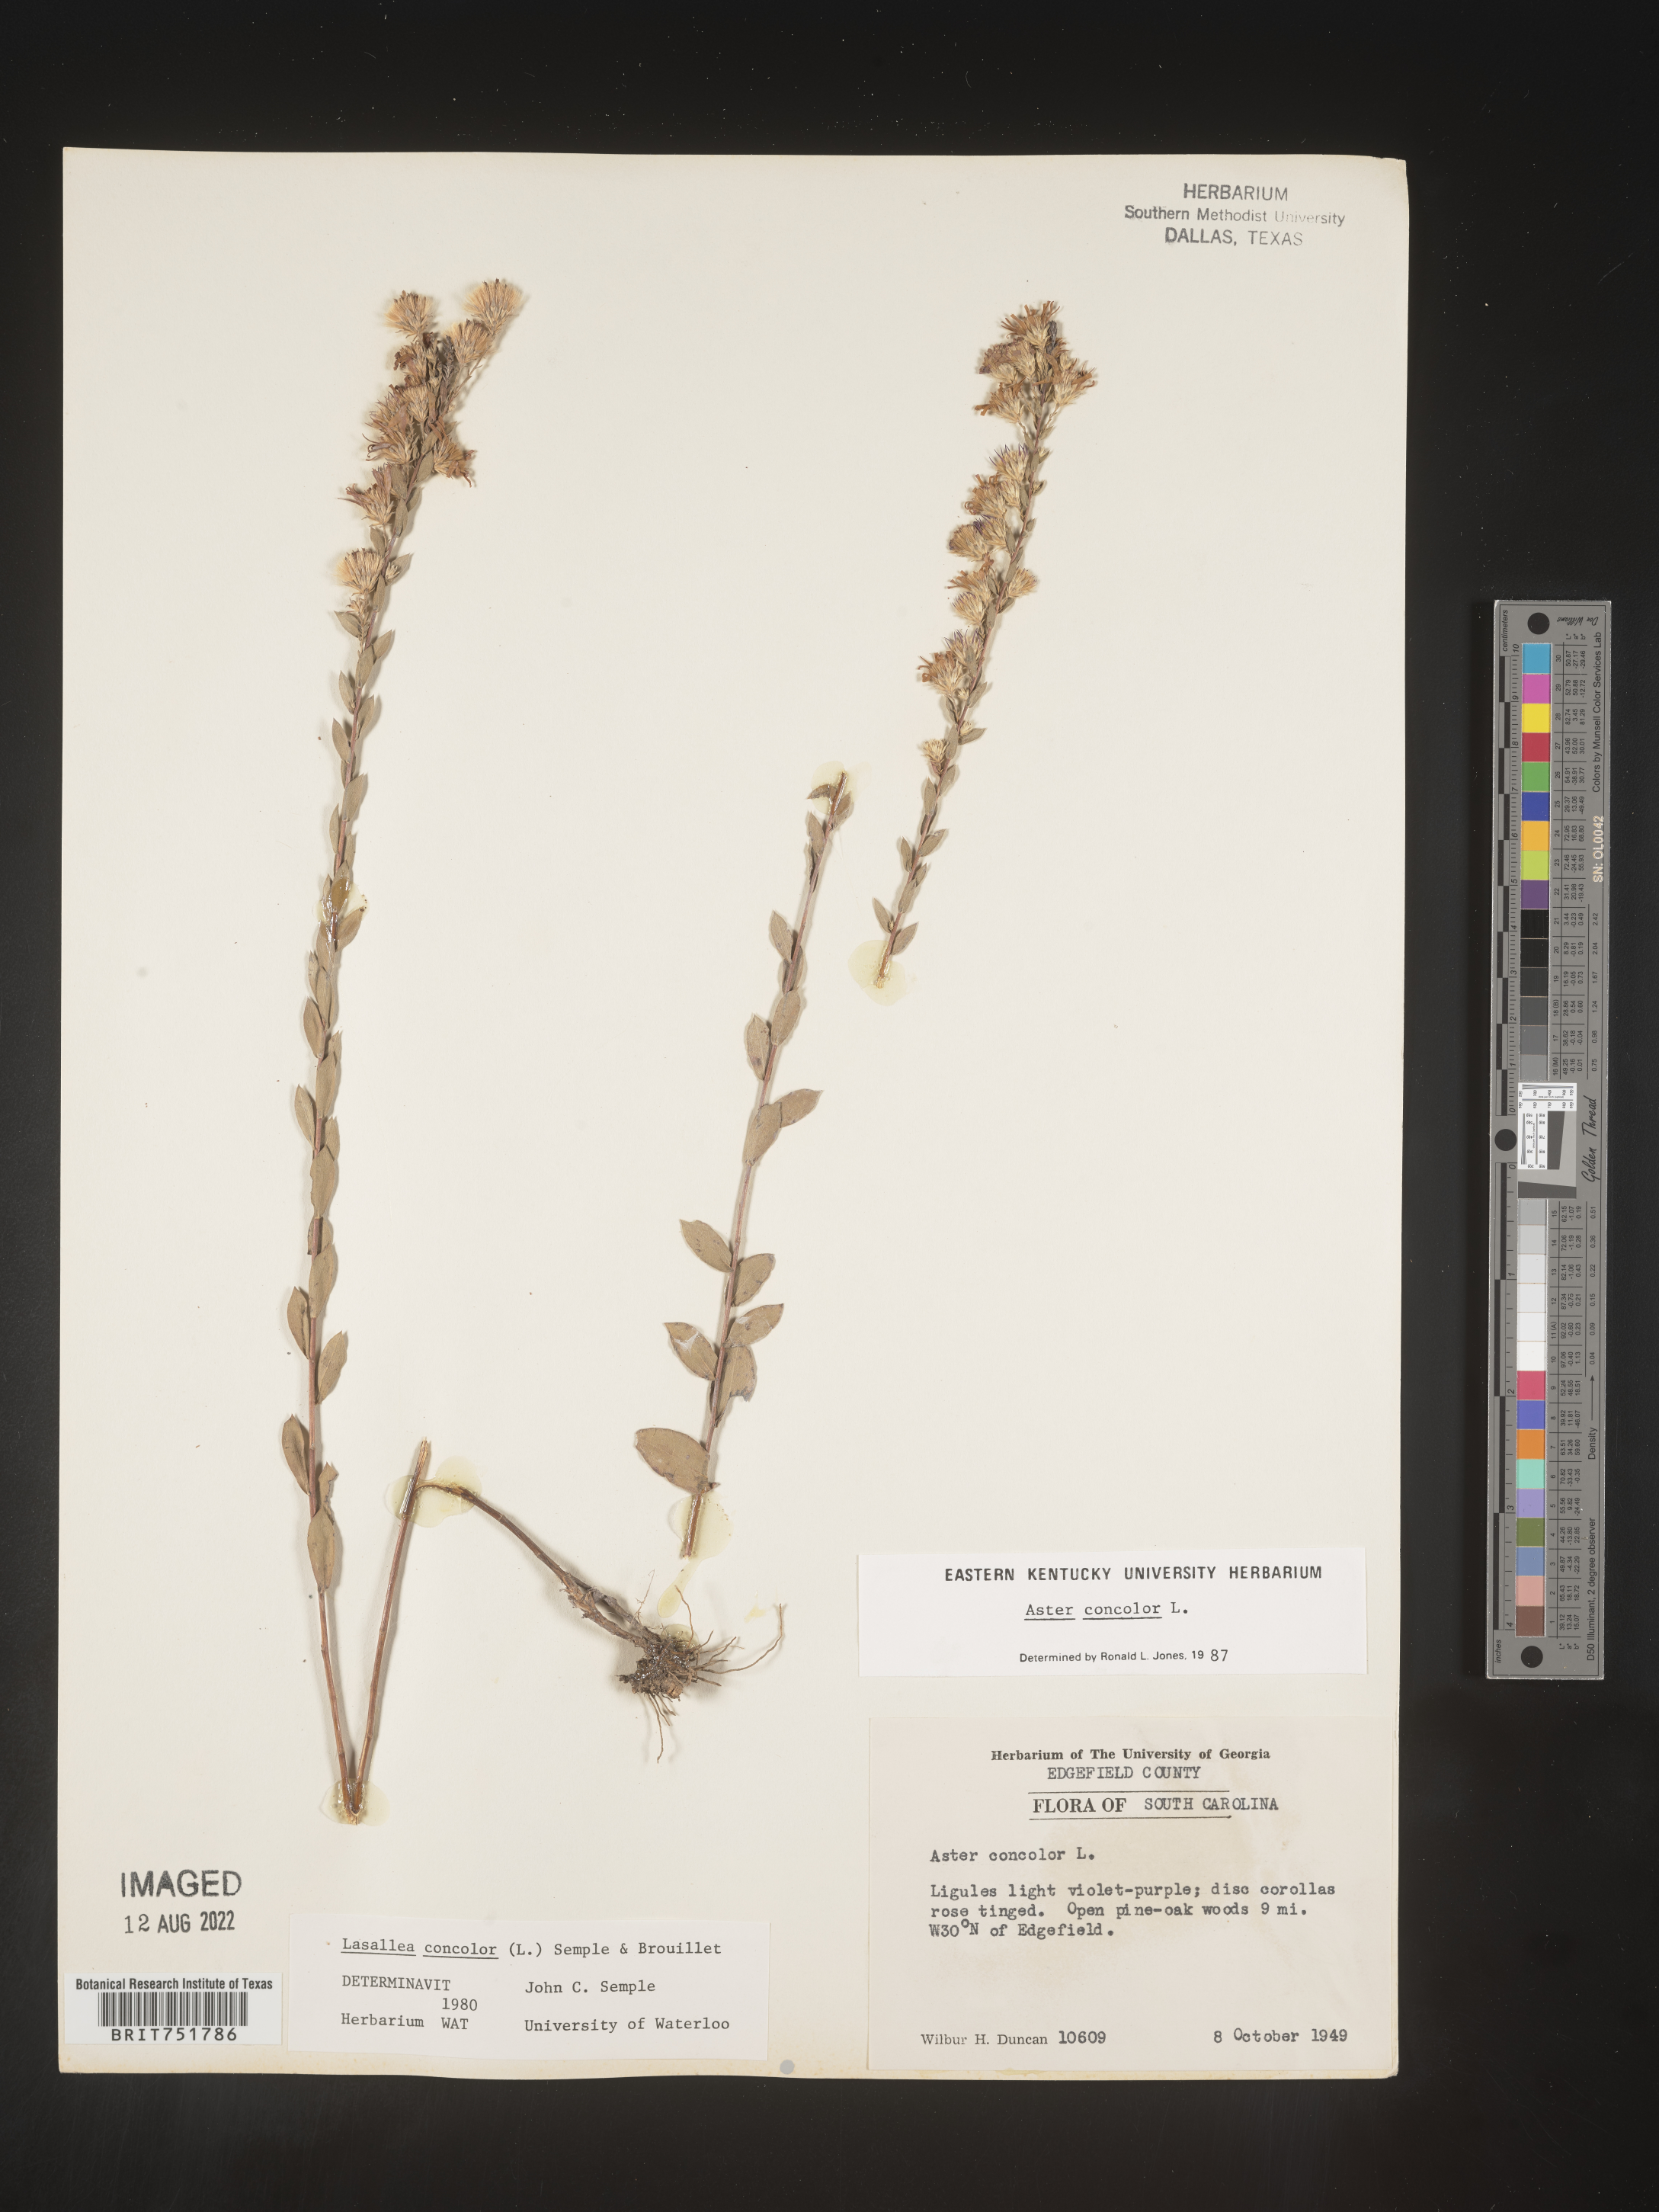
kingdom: Plantae
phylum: Tracheophyta
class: Magnoliopsida
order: Asterales
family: Asteraceae
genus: Symphyotrichum
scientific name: Symphyotrichum concolor
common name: Eastern silver aster
